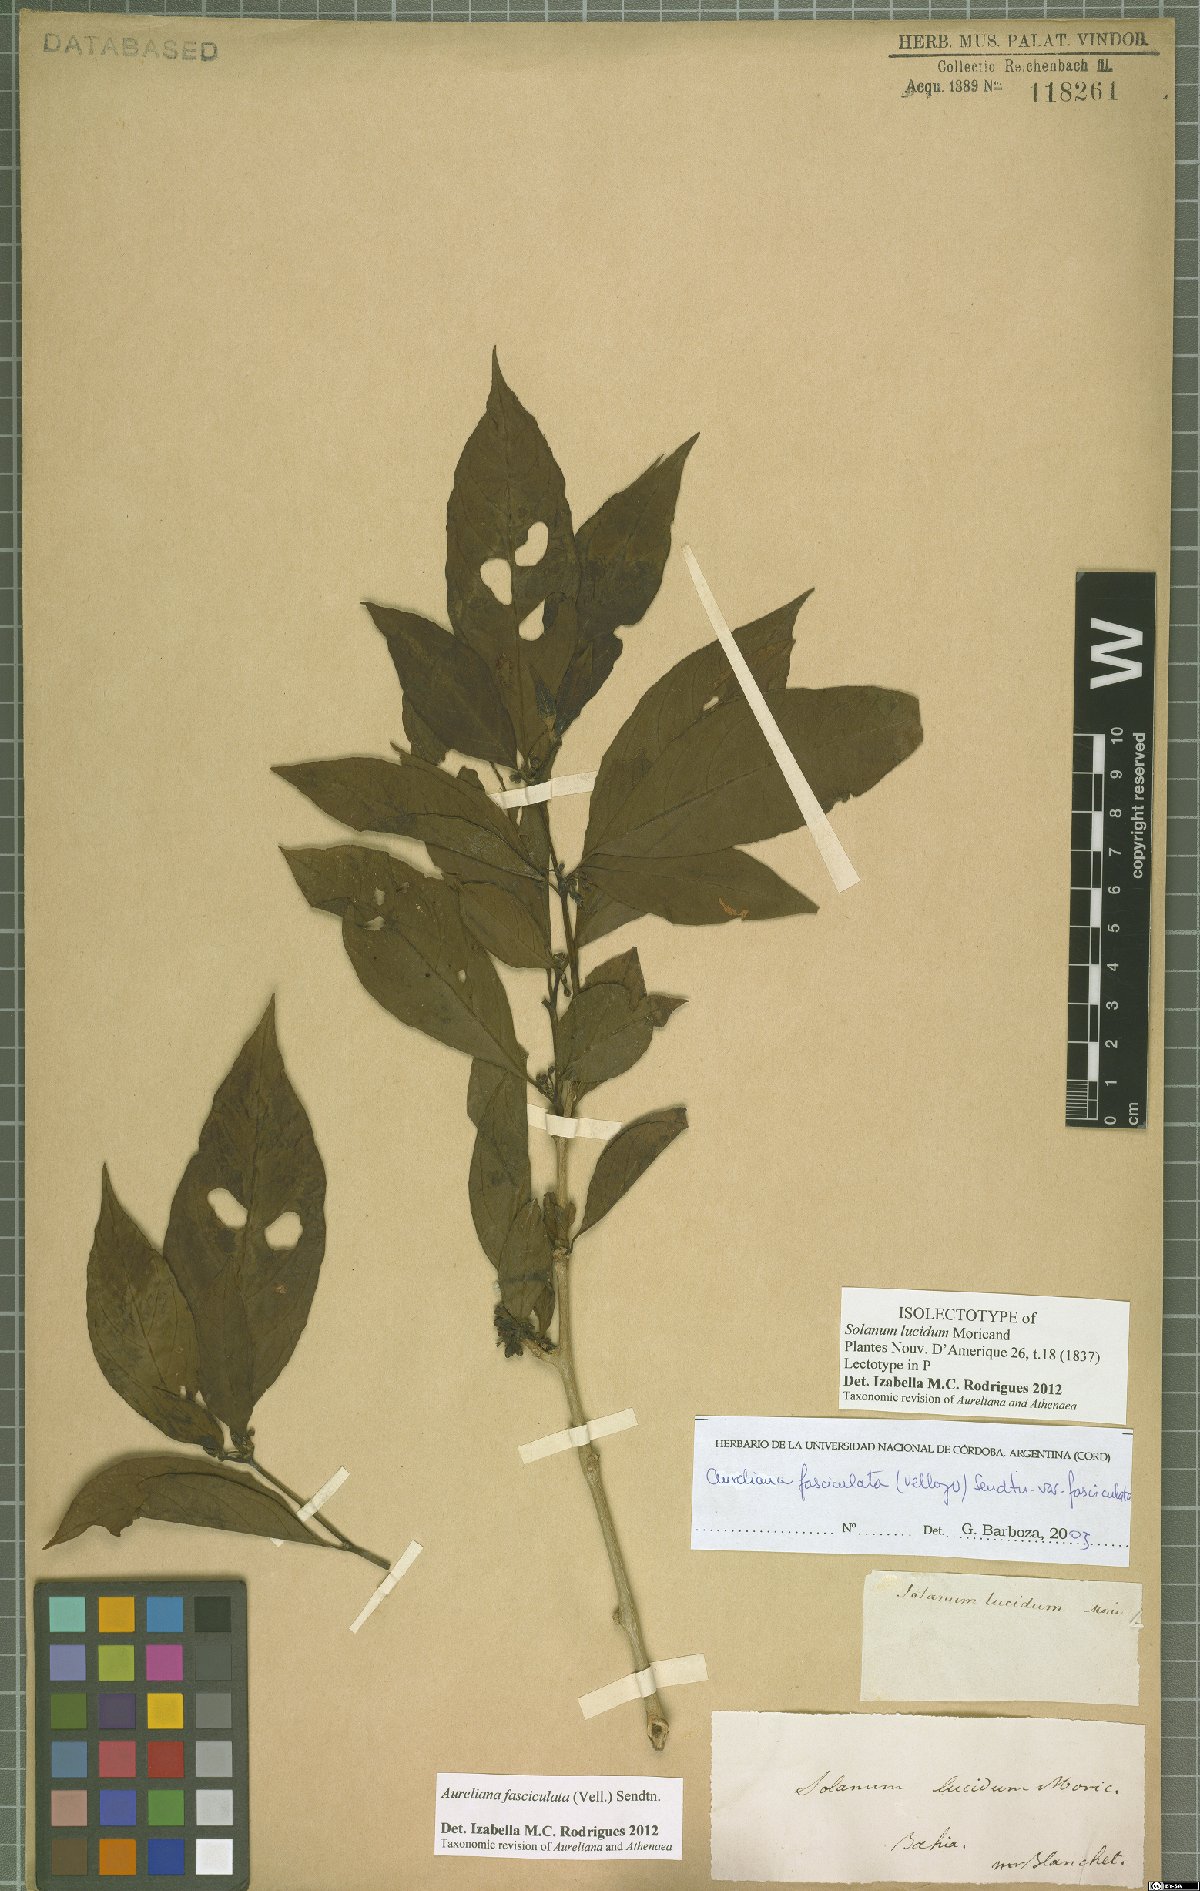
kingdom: Plantae
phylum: Tracheophyta
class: Magnoliopsida
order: Solanales
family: Solanaceae
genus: Athenaea
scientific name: Athenaea fasciculata
